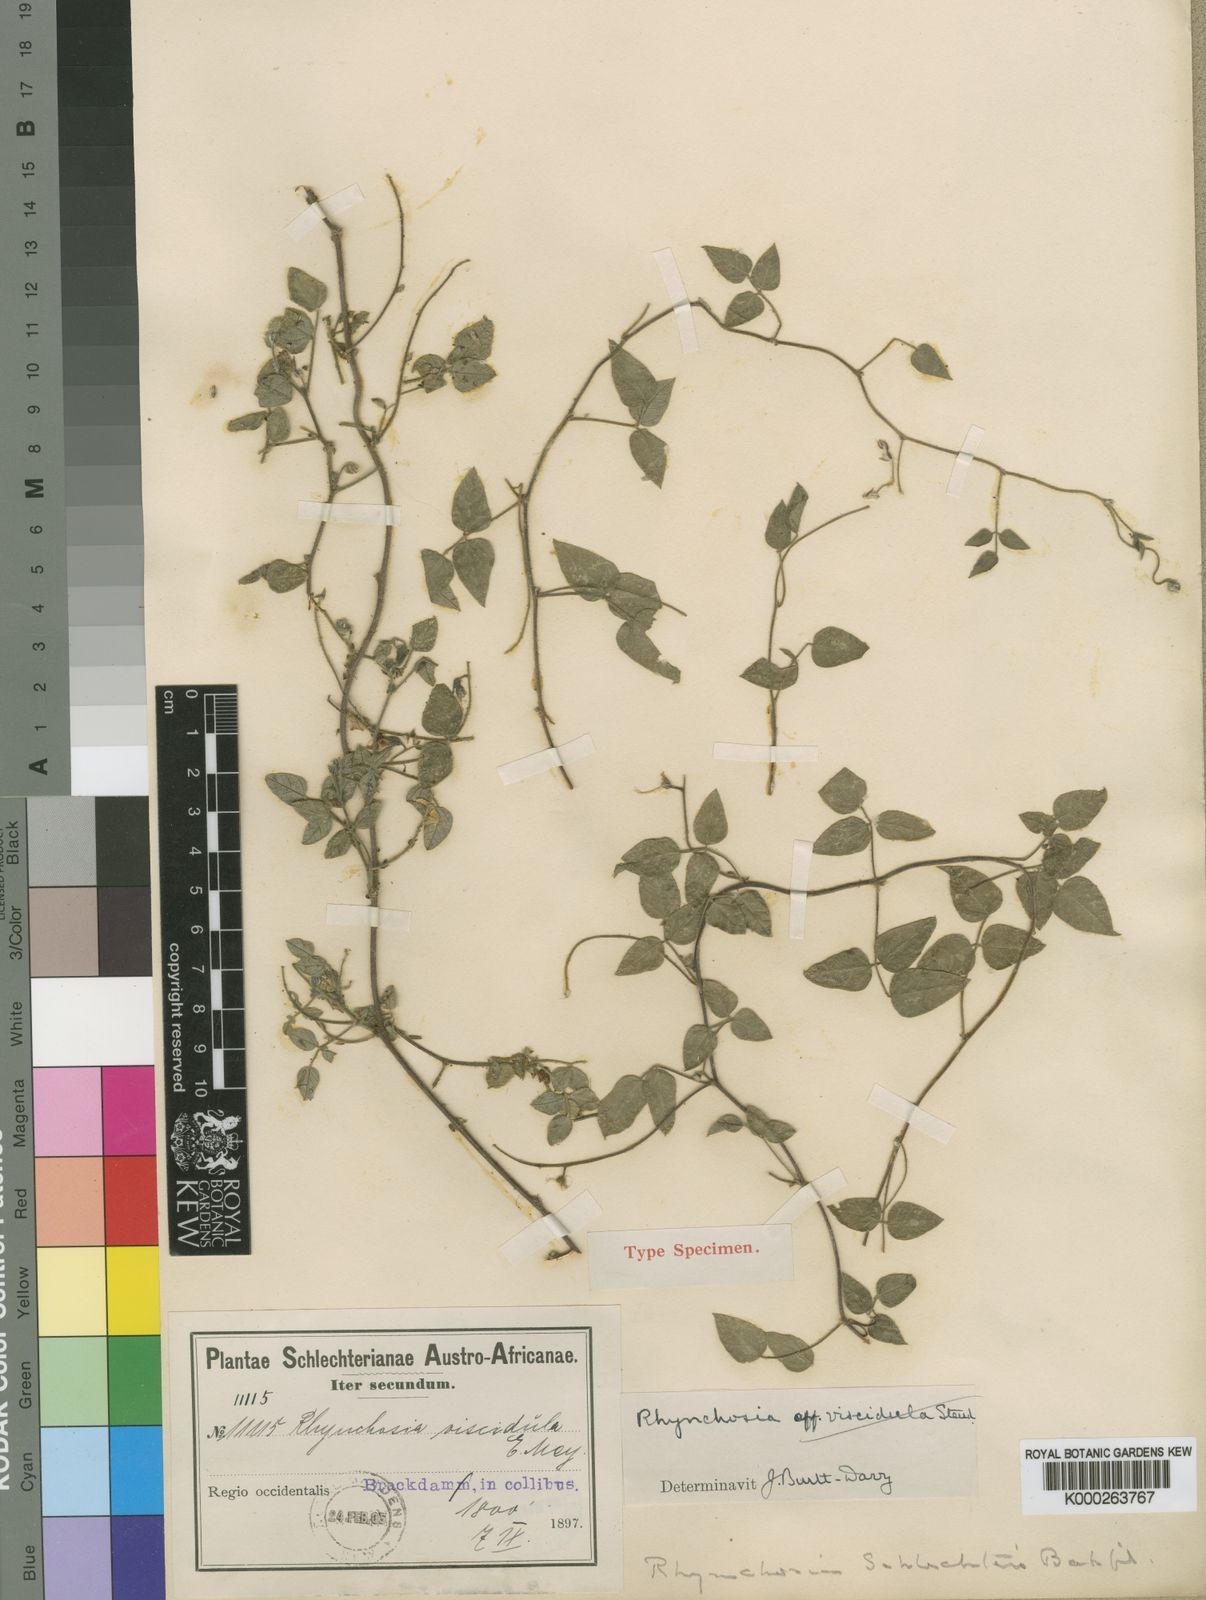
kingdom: Plantae
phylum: Tracheophyta
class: Magnoliopsida
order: Fabales
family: Fabaceae
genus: Rhynchosia
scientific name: Rhynchosia
